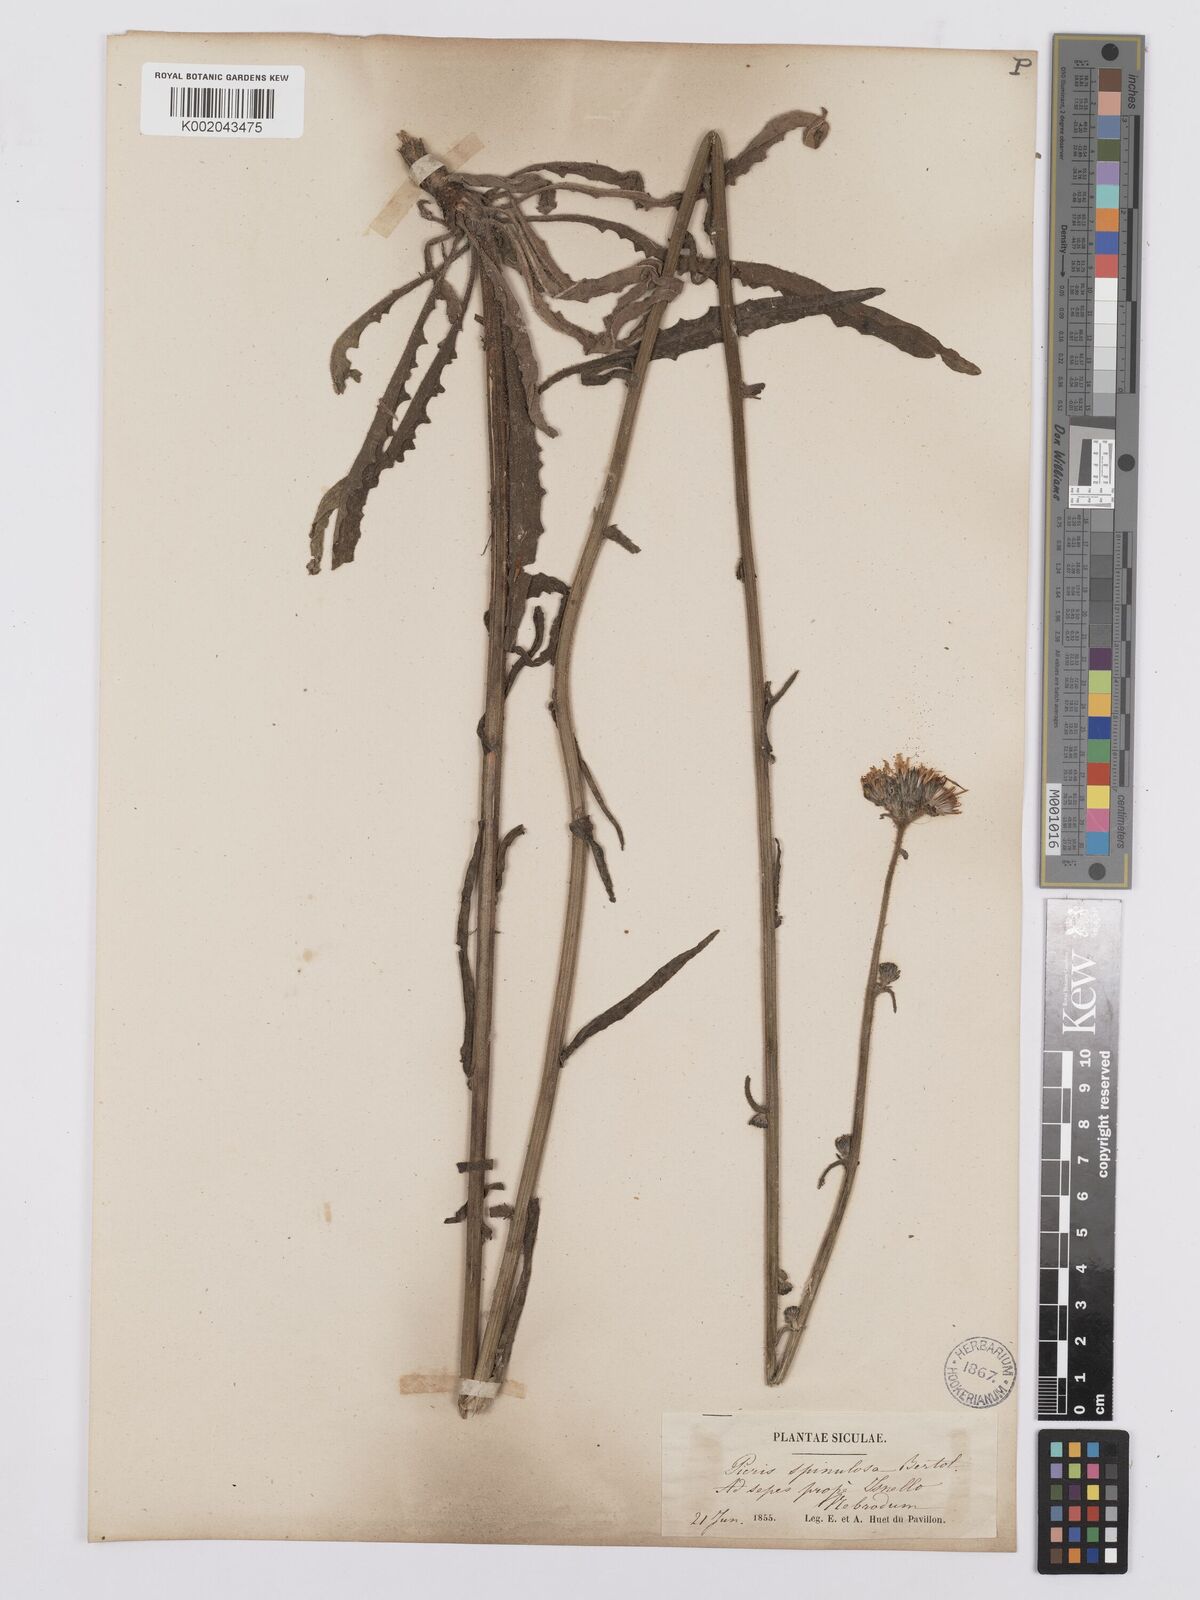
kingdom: Plantae
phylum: Tracheophyta
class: Magnoliopsida
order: Asterales
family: Asteraceae
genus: Picris
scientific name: Picris hieracioides
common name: Hawkweed oxtongue
